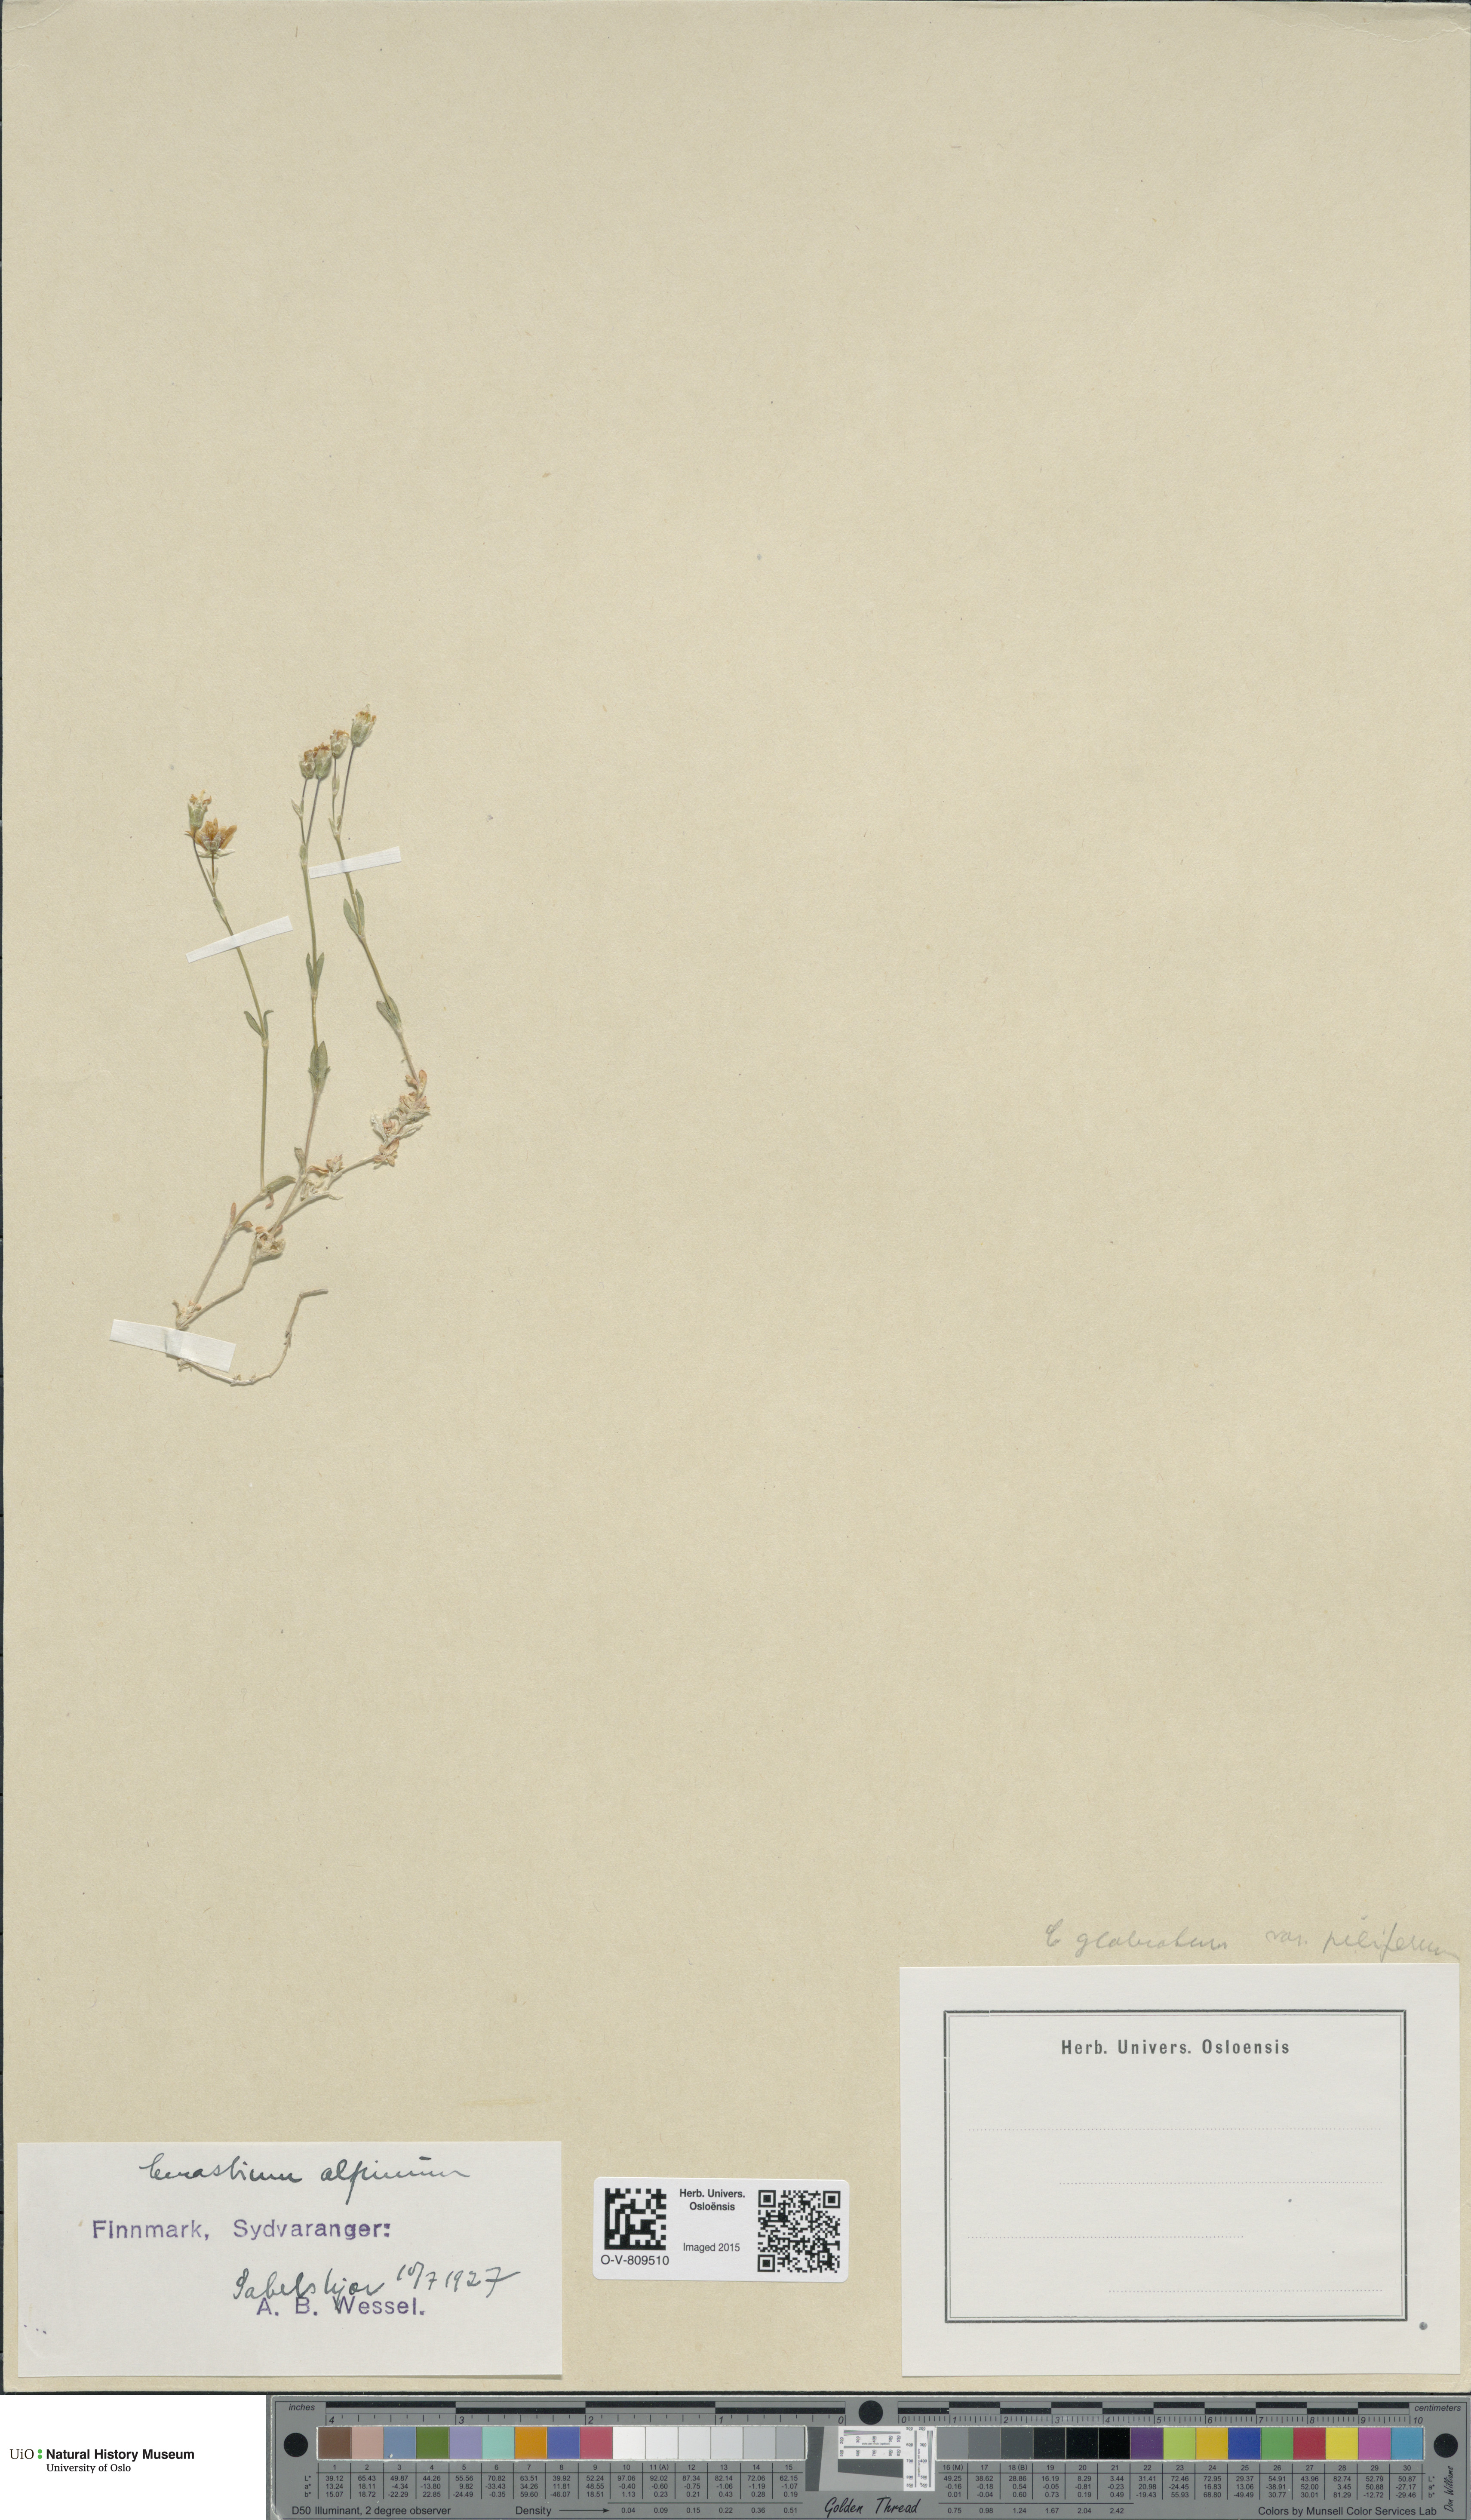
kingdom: Plantae
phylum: Tracheophyta
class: Magnoliopsida
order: Caryophyllales
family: Caryophyllaceae
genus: Cerastium
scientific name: Cerastium alpinum
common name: Alpine mouse-ear
